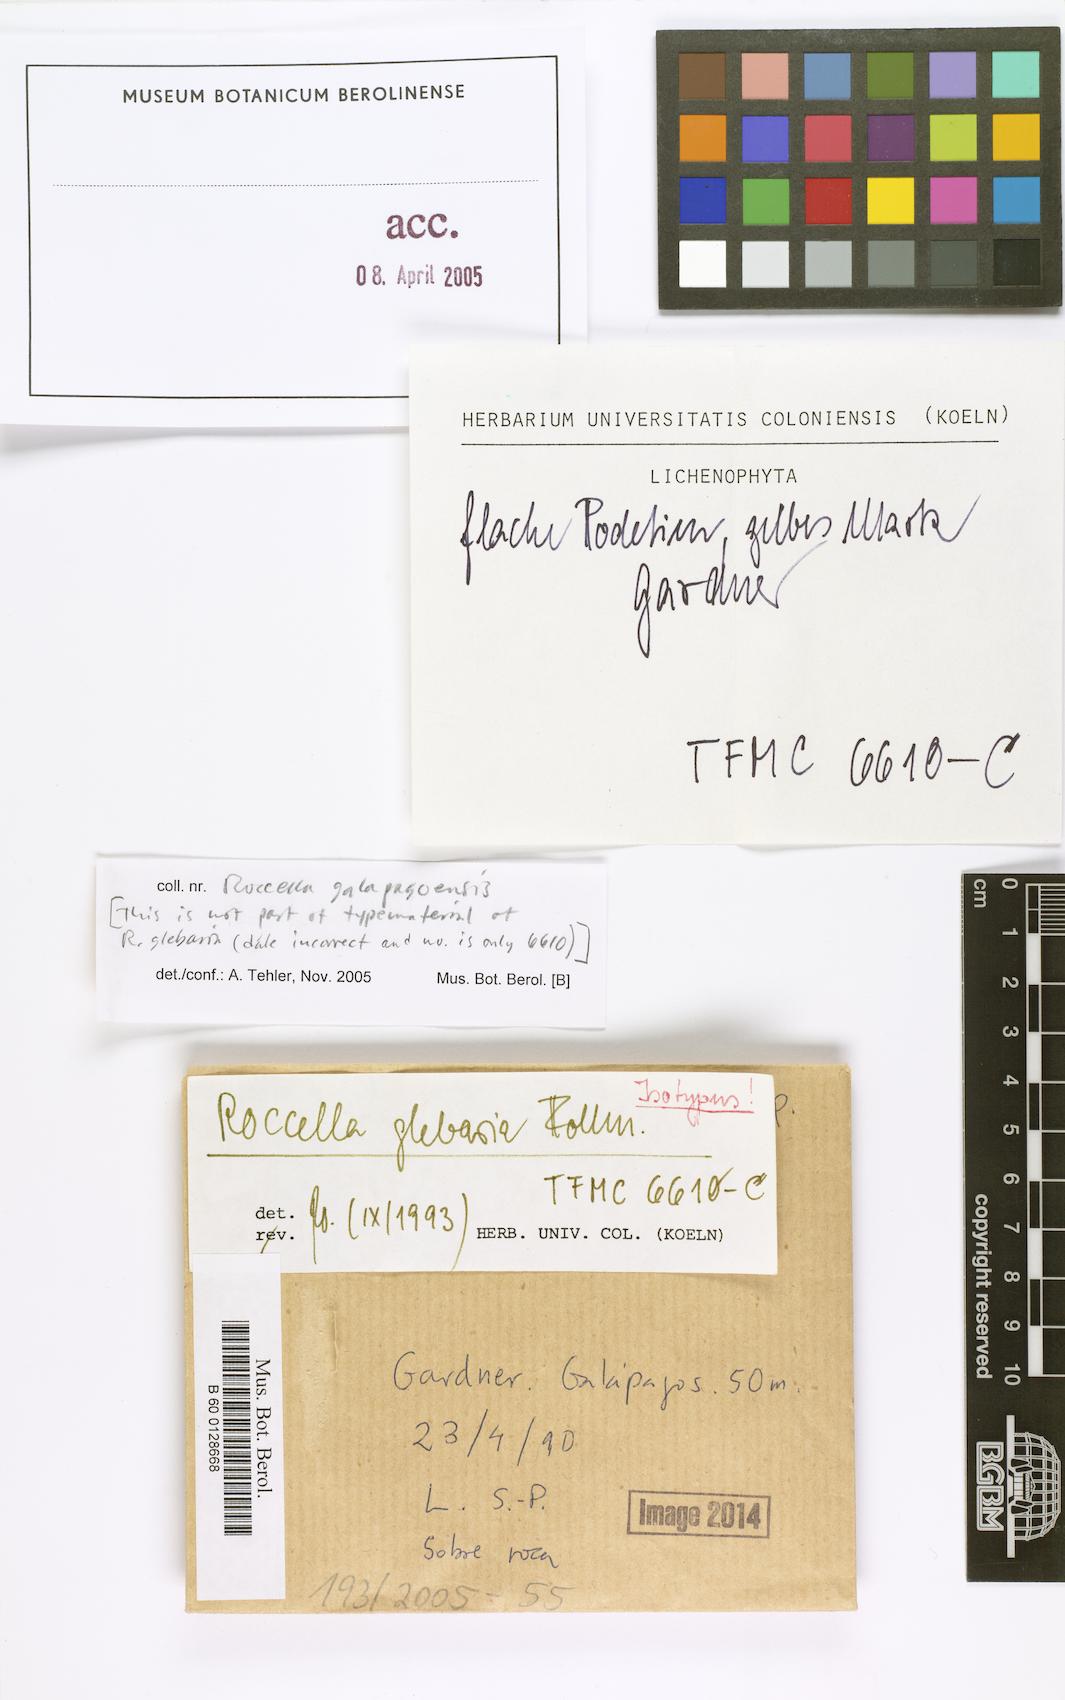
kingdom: Fungi
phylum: Ascomycota
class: Arthoniomycetes
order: Arthoniales
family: Roccellaceae
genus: Roccella
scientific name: Roccella glebaria
